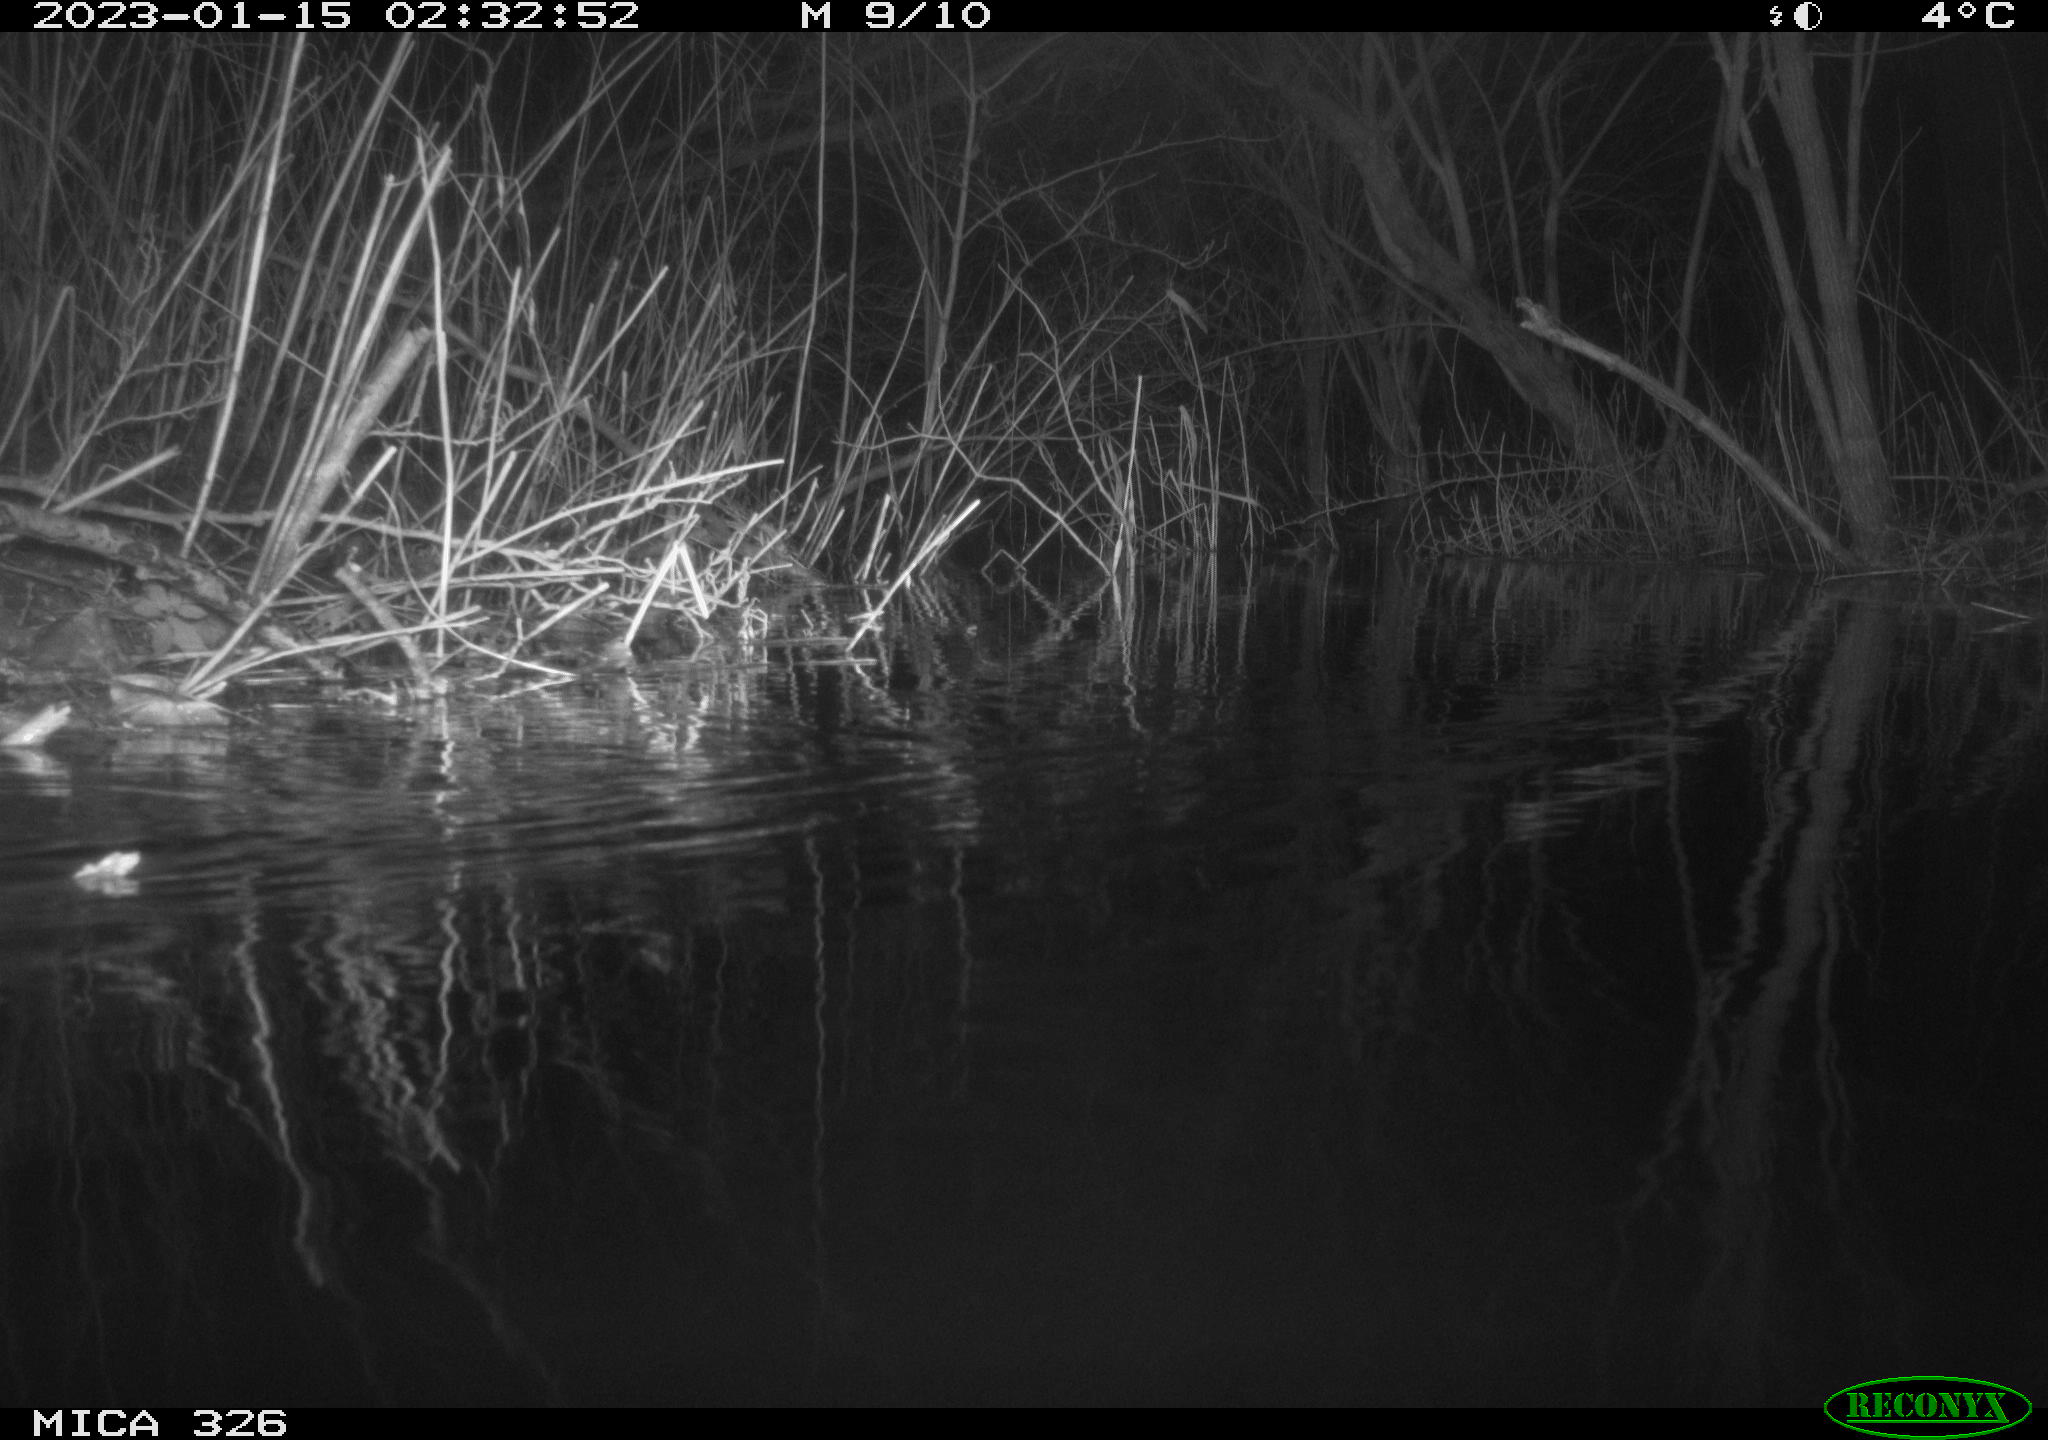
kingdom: Animalia
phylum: Chordata
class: Mammalia
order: Rodentia
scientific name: Rodentia
